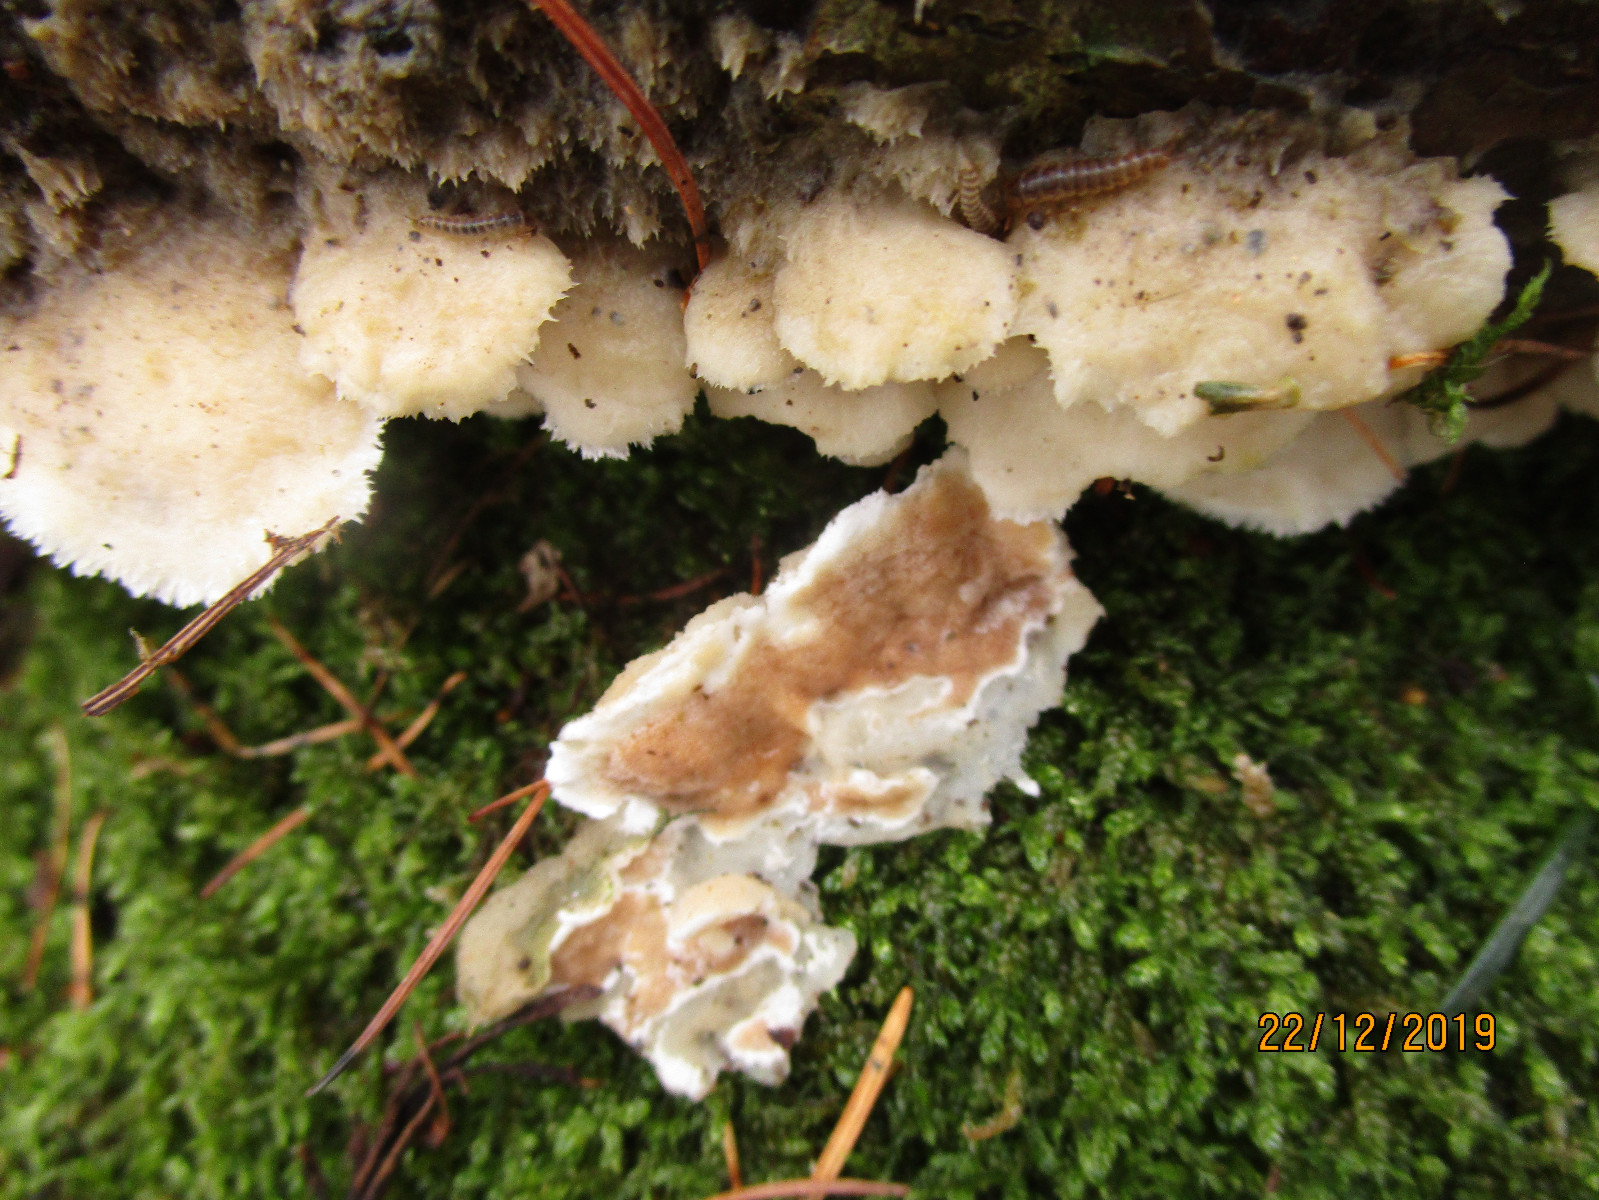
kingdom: Fungi
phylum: Basidiomycota
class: Agaricomycetes
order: Polyporales
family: Irpicaceae
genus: Vitreoporus
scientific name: Vitreoporus dichrous
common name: tofarvet foldporesvamp
